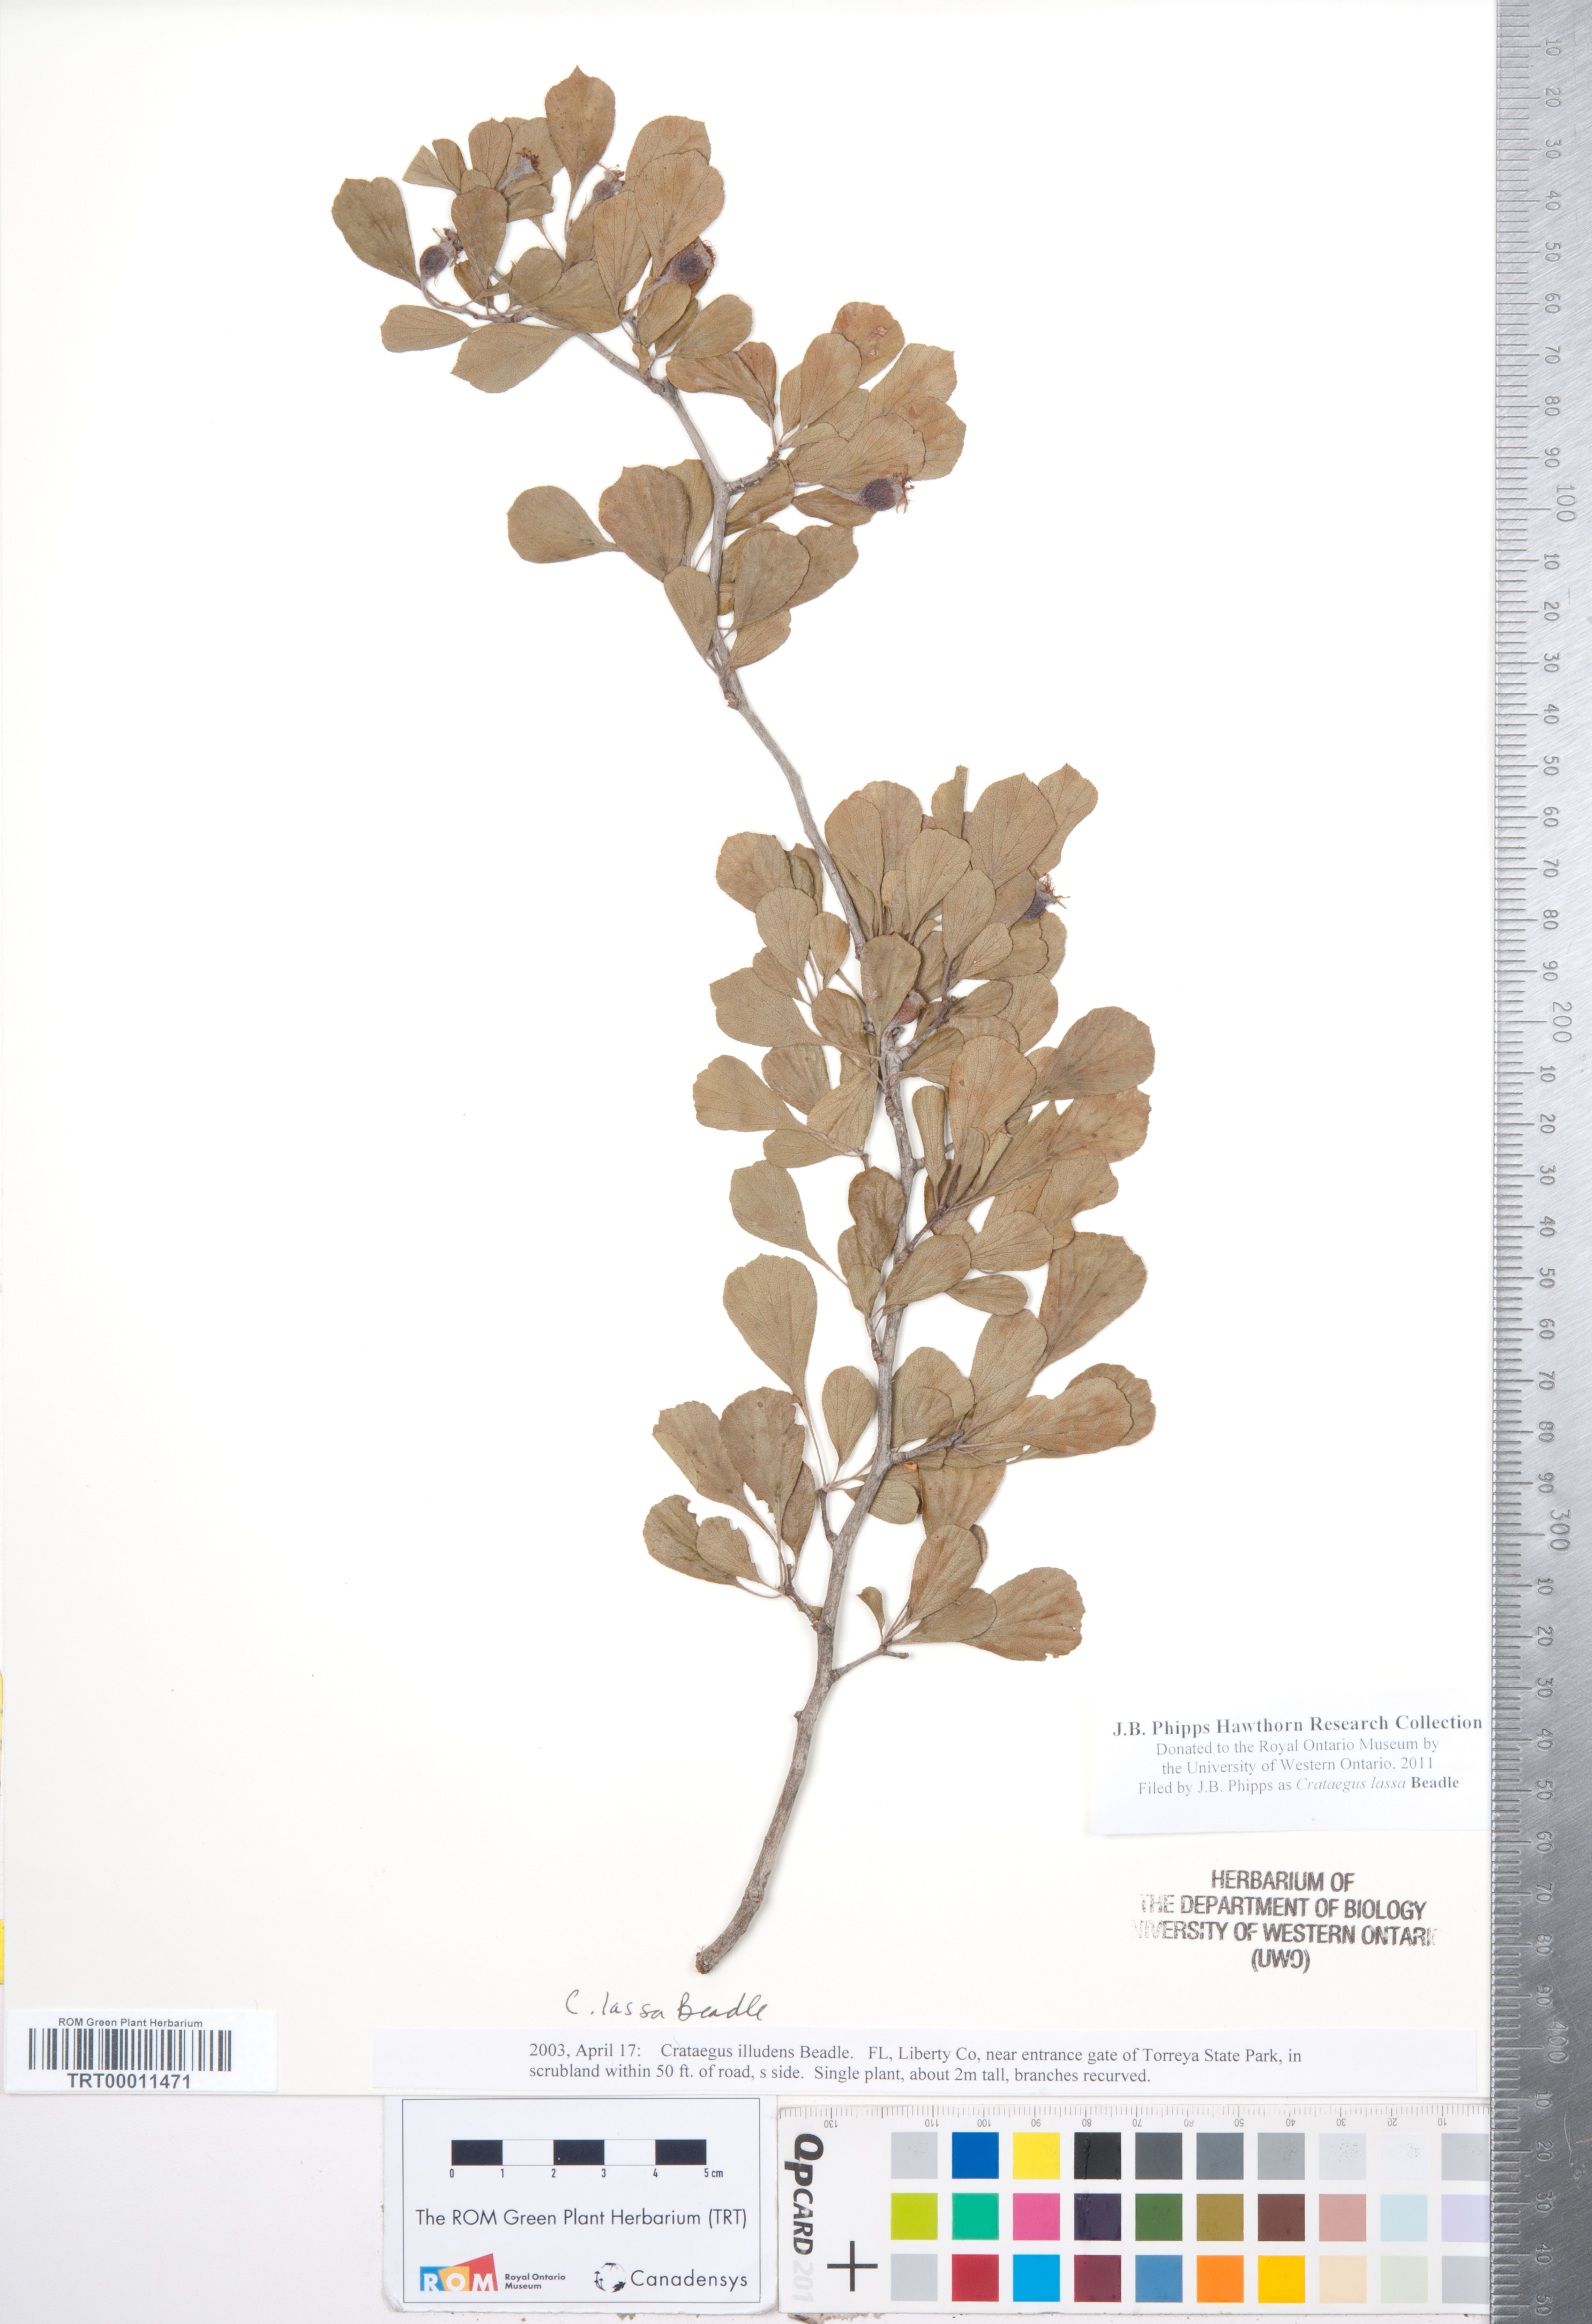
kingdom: Plantae
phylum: Tracheophyta
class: Magnoliopsida
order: Rosales
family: Rosaceae
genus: Crataegus
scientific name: Crataegus lassa
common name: Florida hawthorn
